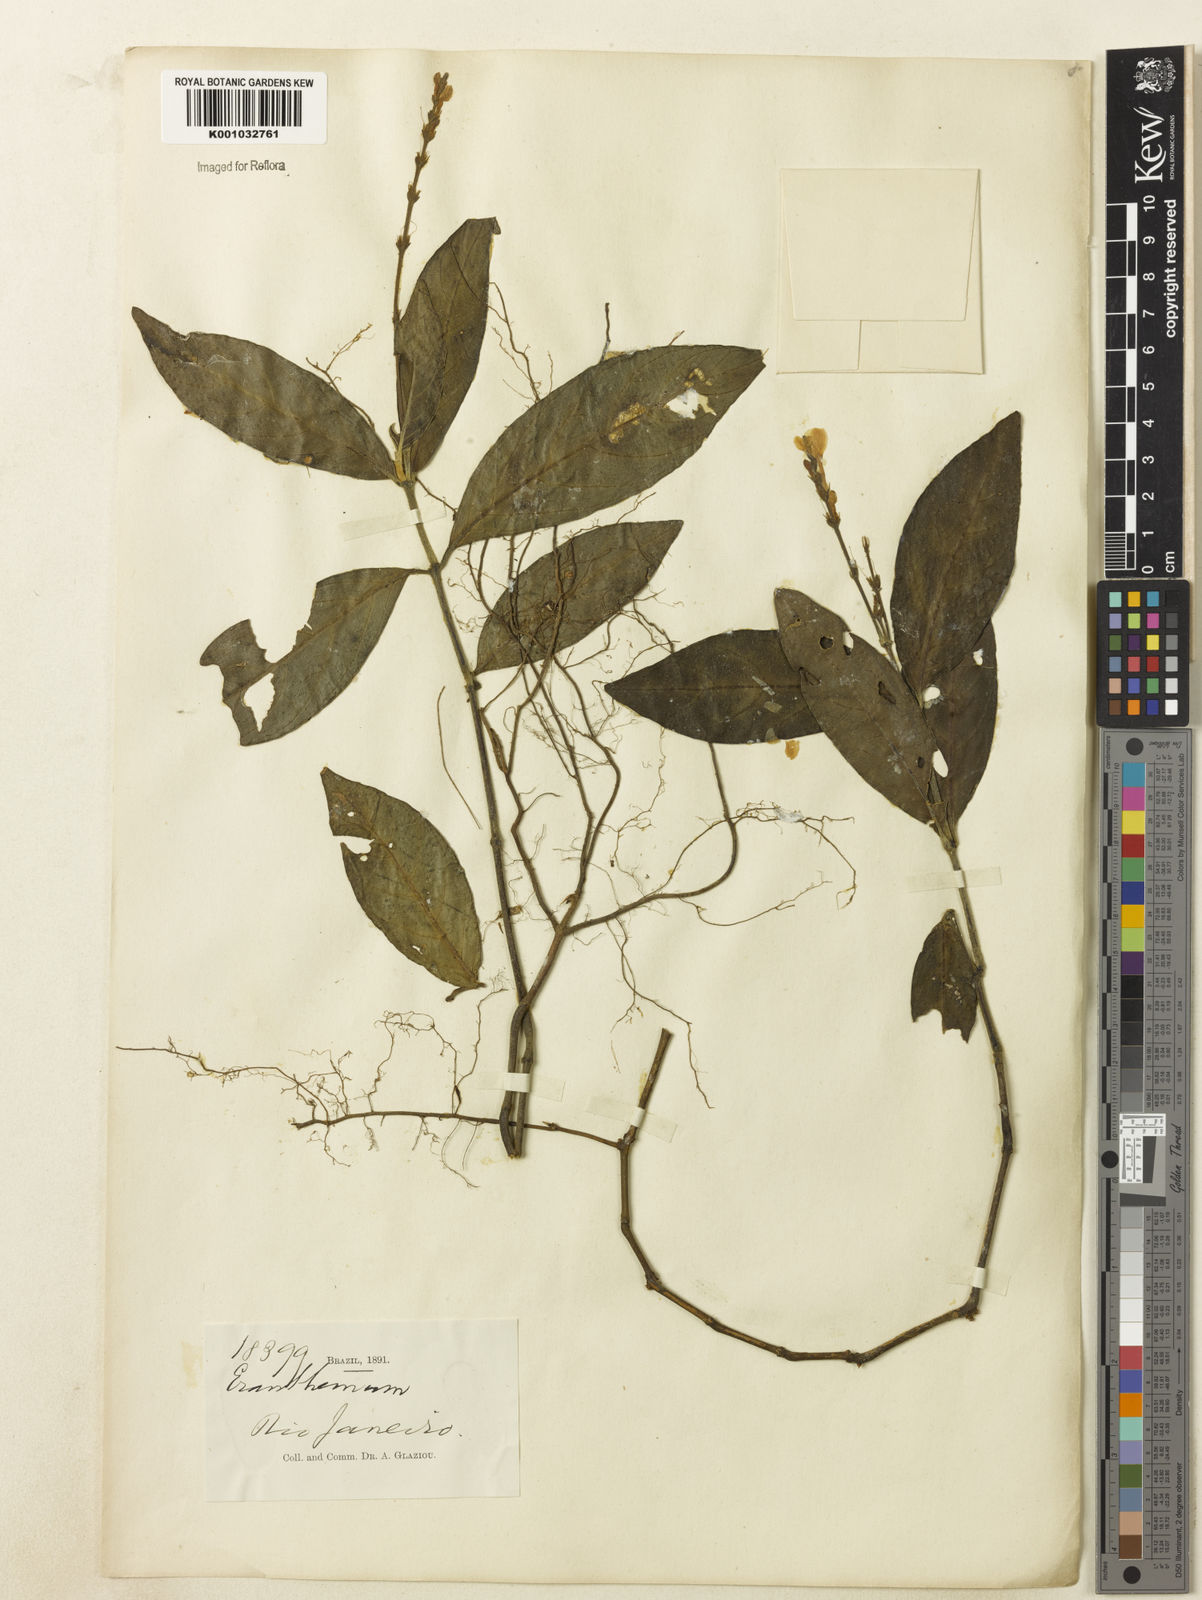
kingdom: Plantae
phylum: Tracheophyta
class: Magnoliopsida
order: Lamiales
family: Acanthaceae
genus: Pseuderanthemum
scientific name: Pseuderanthemum
